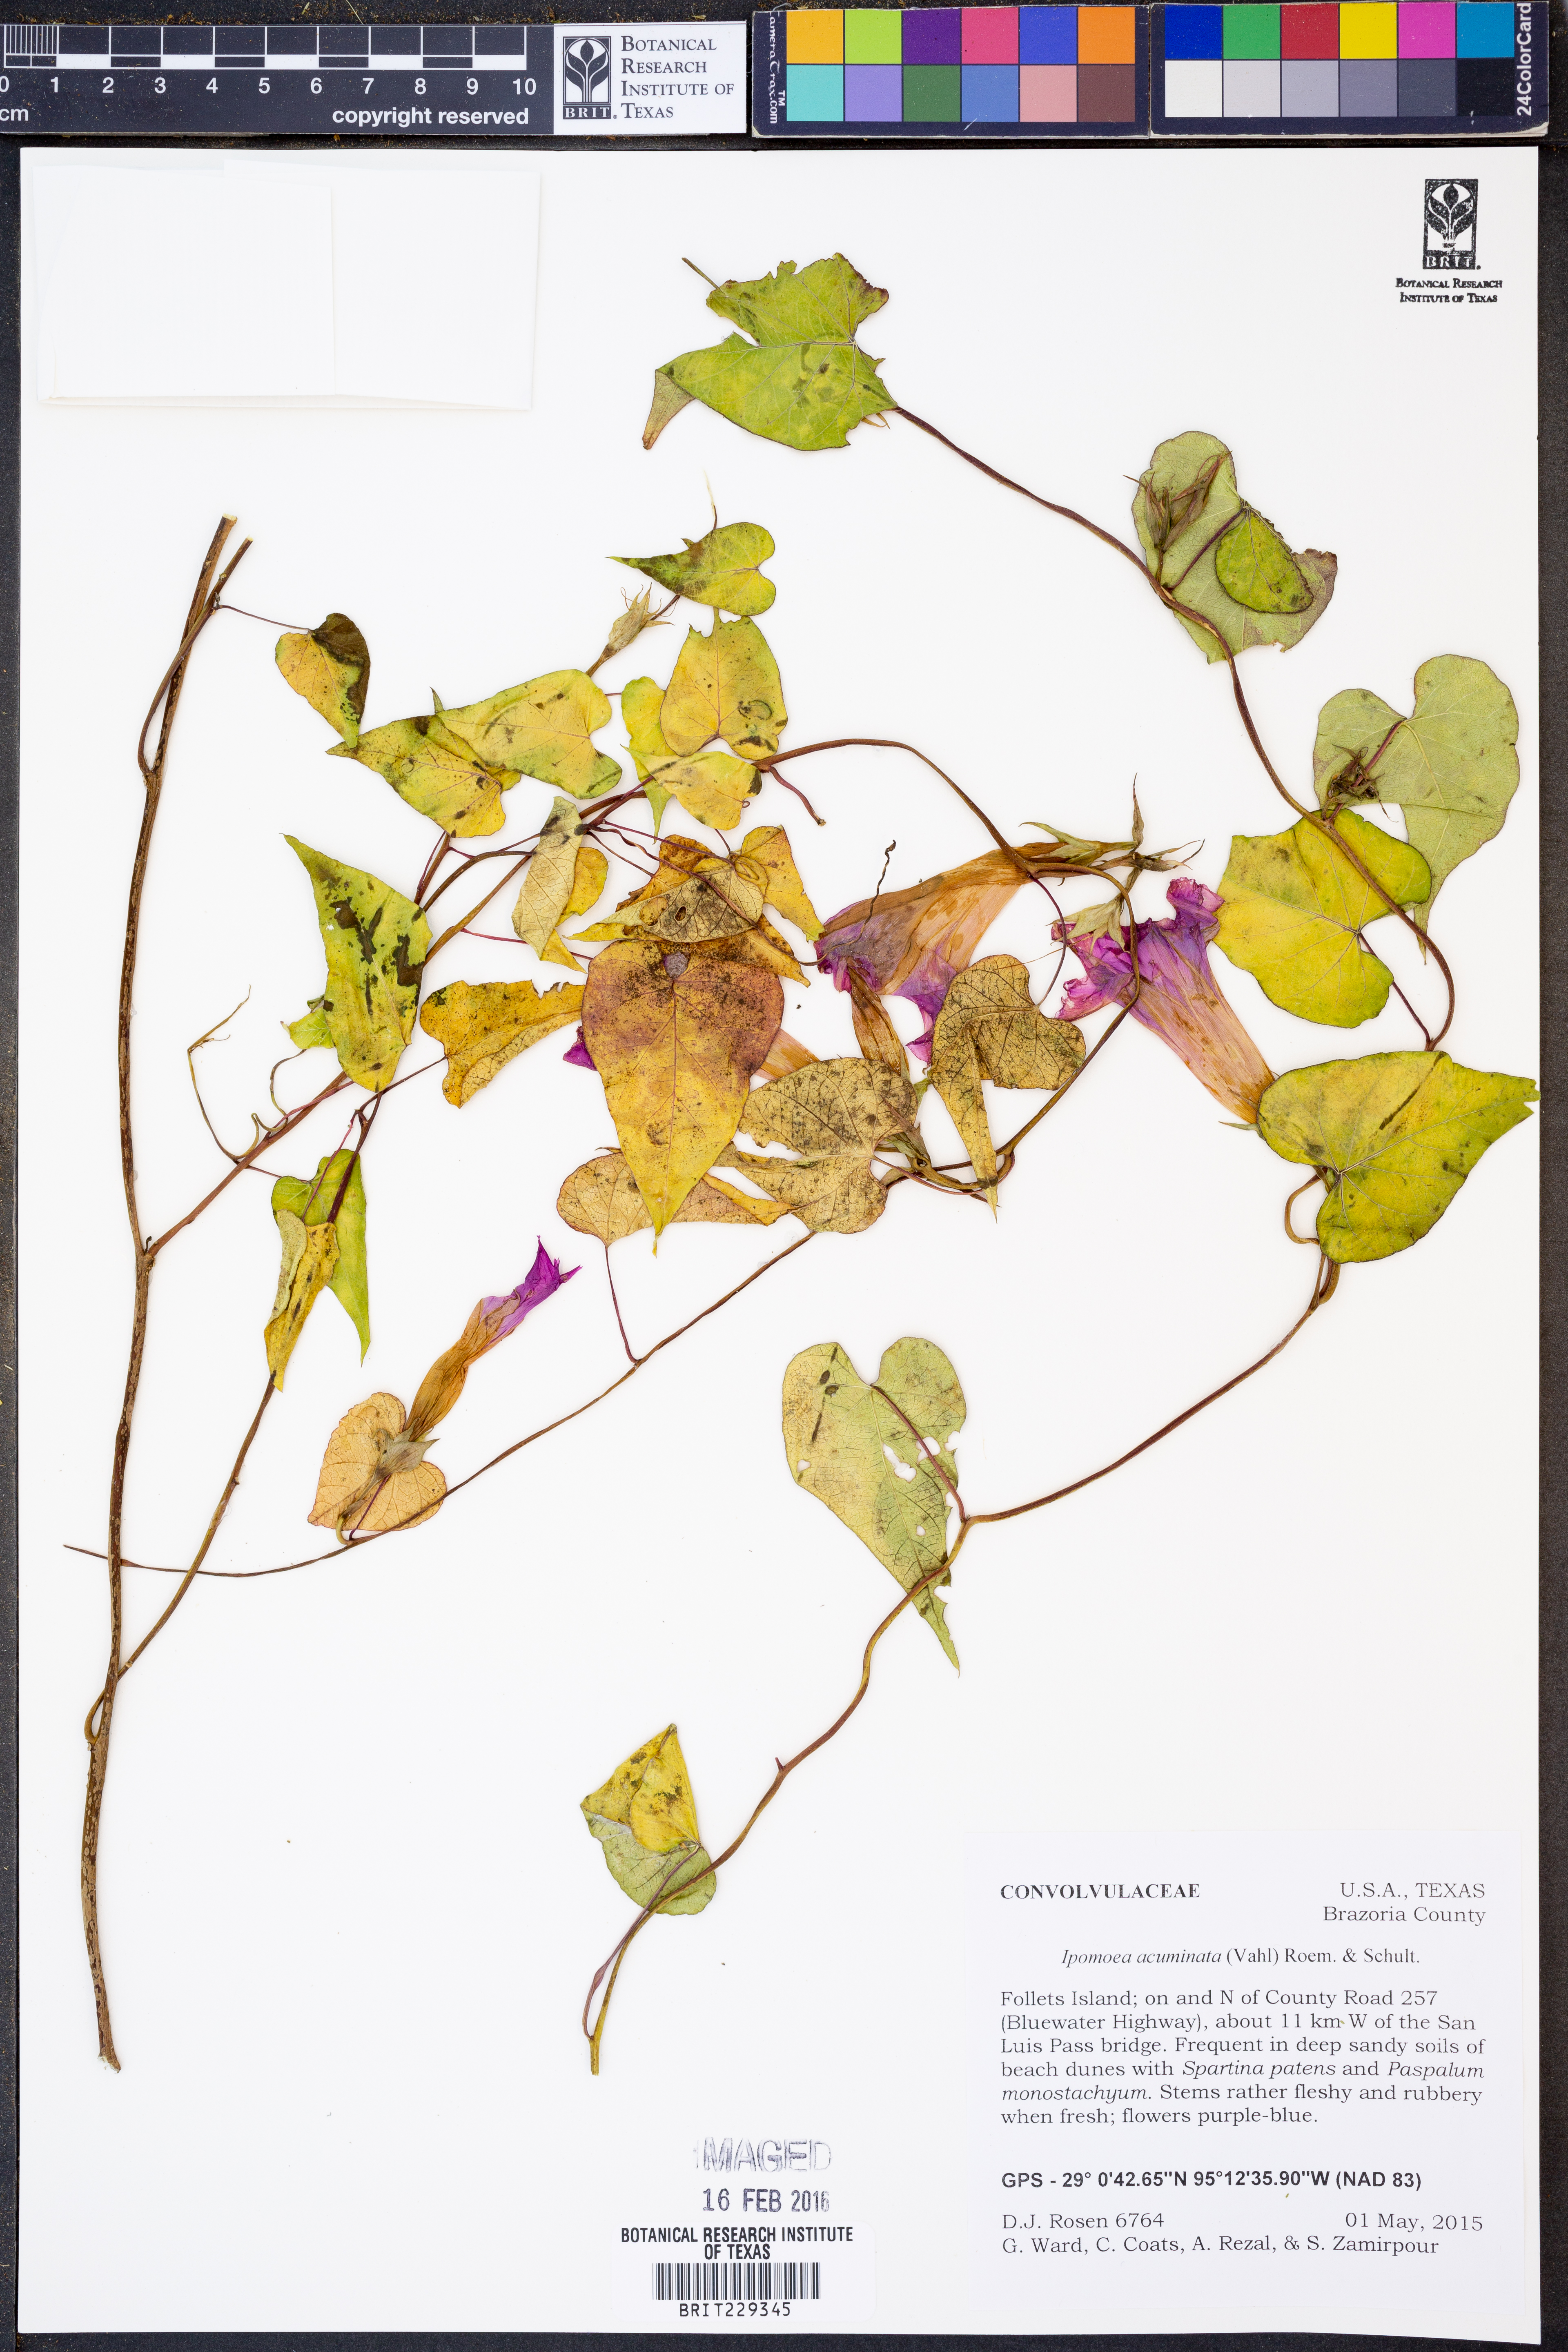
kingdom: Plantae
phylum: Tracheophyta
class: Magnoliopsida
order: Solanales
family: Convolvulaceae
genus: Ipomoea
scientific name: Ipomoea coccinea
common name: Red morning-glory
